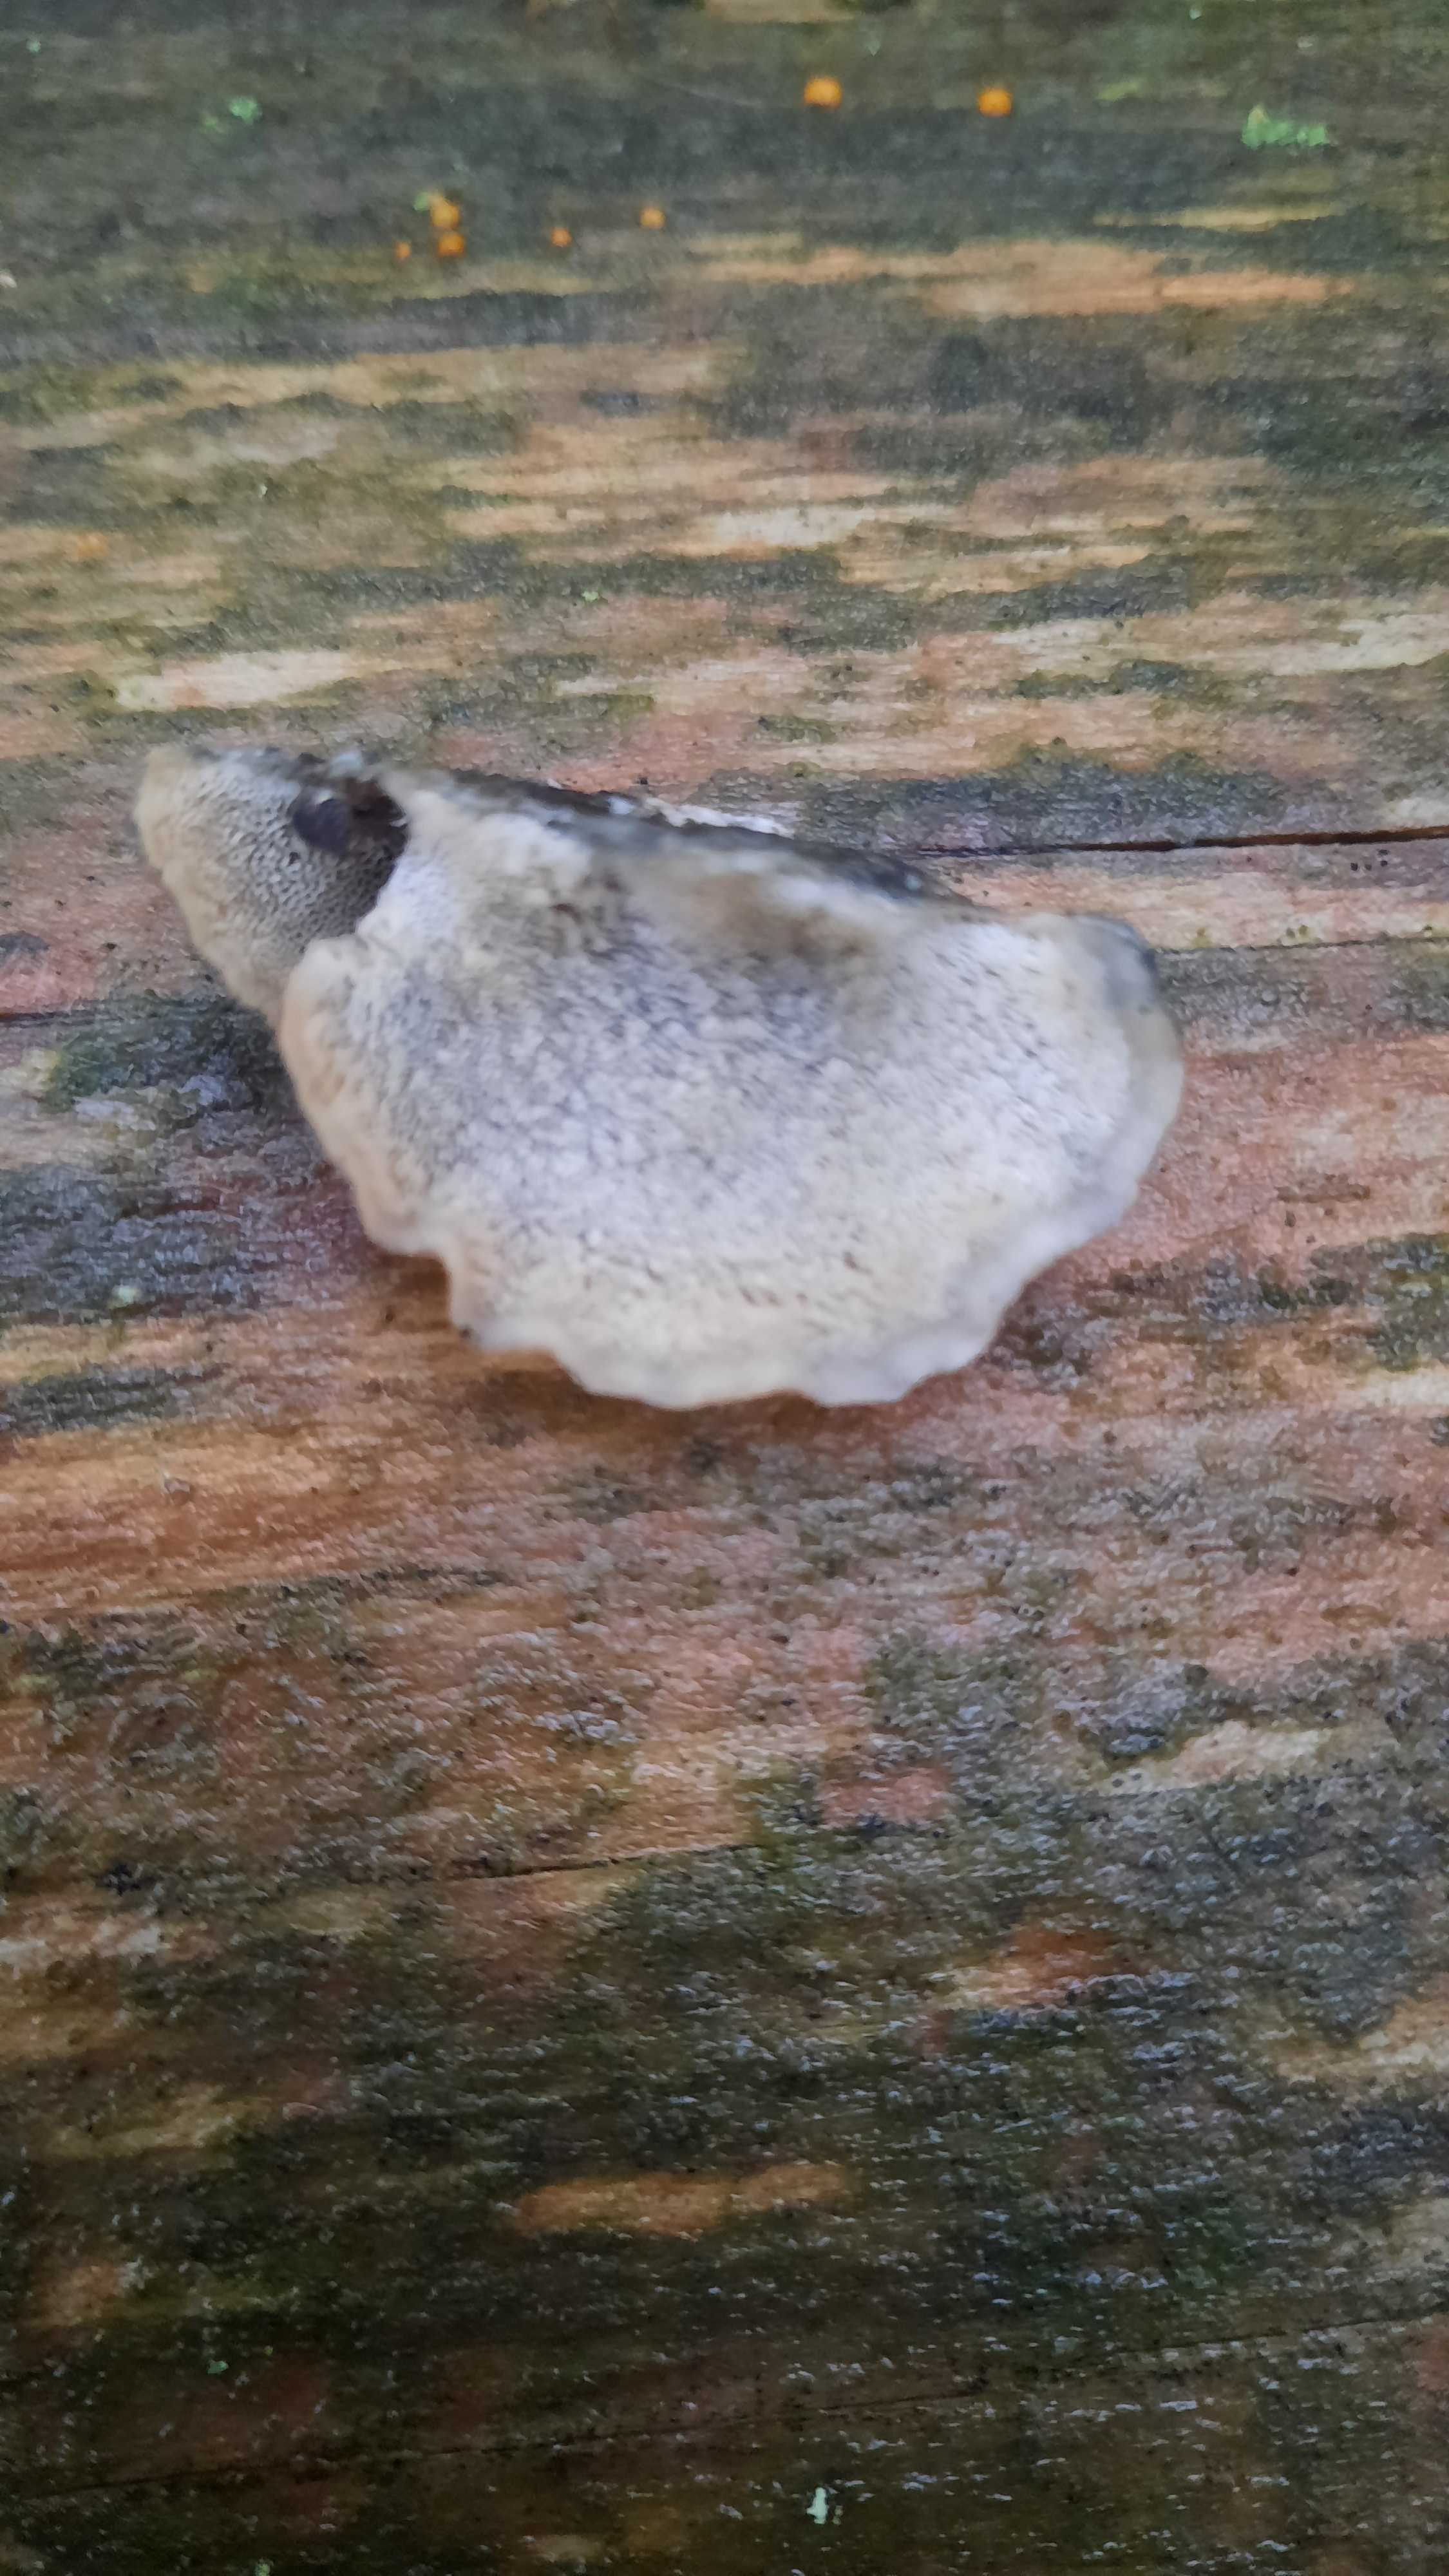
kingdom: Fungi
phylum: Basidiomycota
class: Agaricomycetes
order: Polyporales
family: Polyporaceae
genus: Cyanosporus
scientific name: Cyanosporus caesius
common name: blålig kødporesvamp
